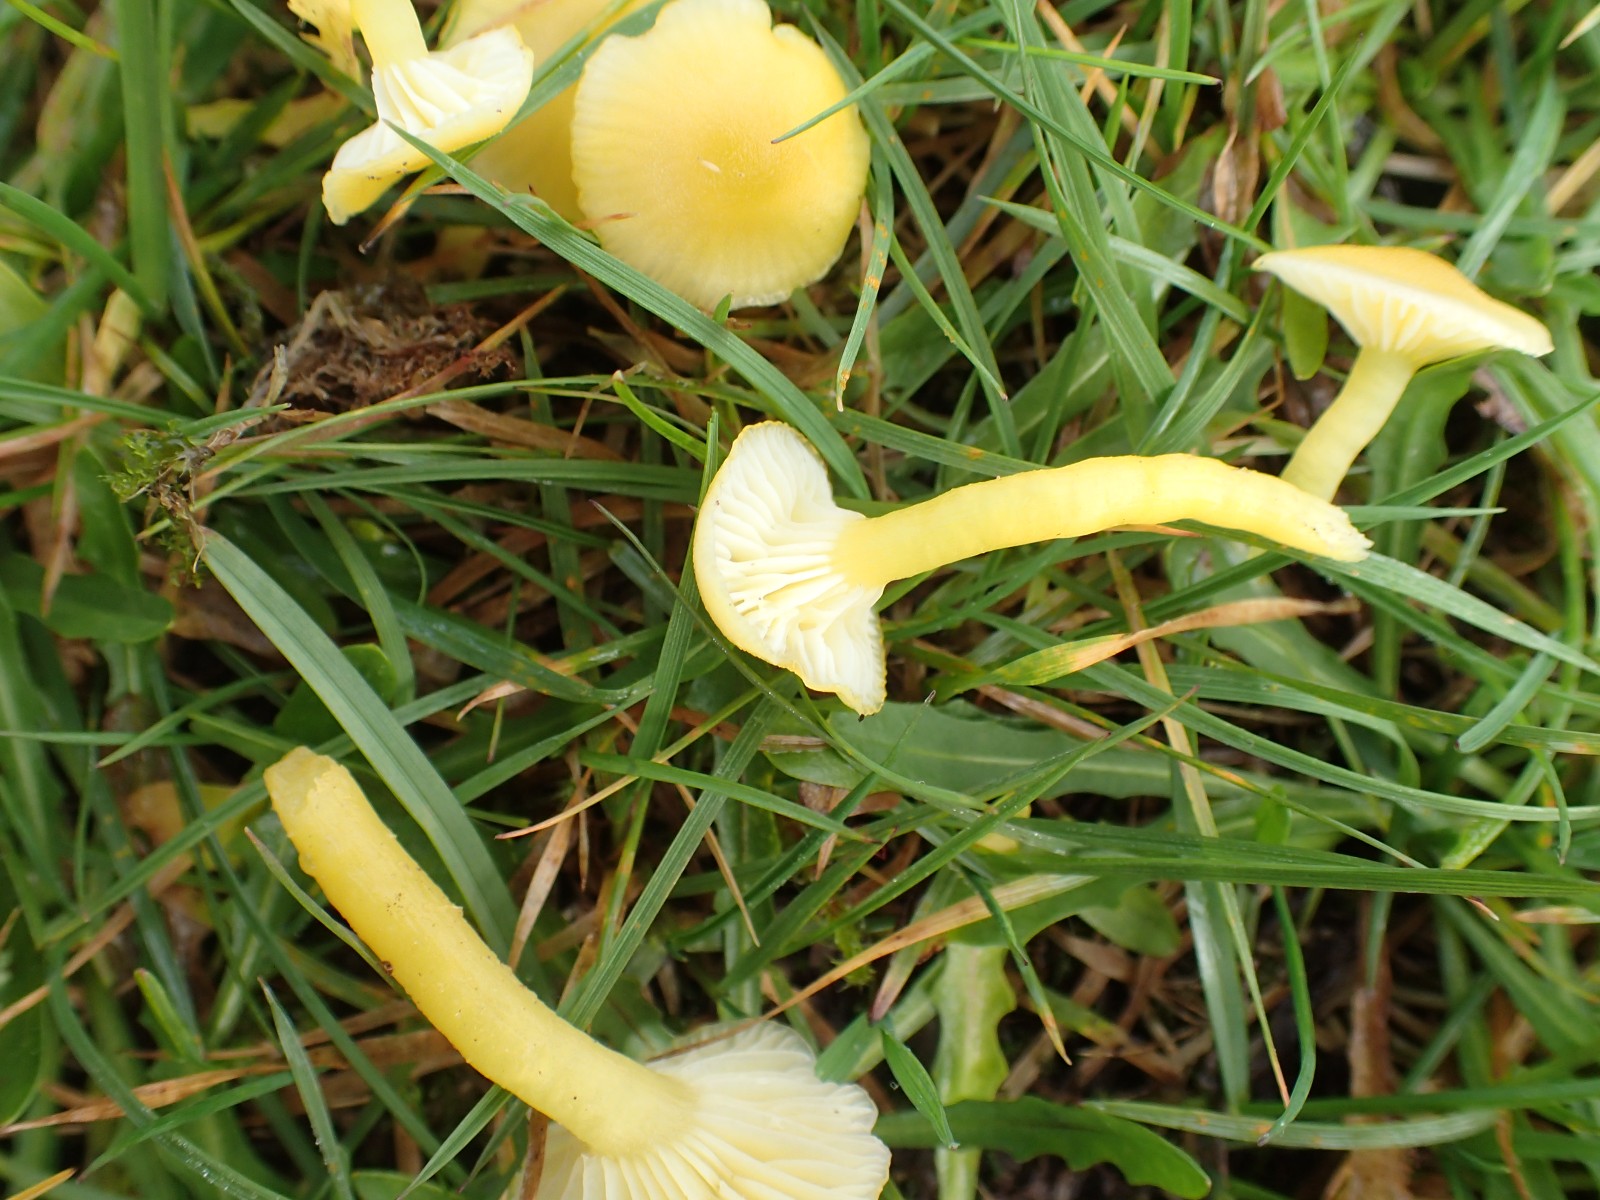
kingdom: Fungi
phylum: Basidiomycota
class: Agaricomycetes
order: Agaricales
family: Hygrophoraceae
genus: Hygrocybe
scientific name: Hygrocybe ceracea
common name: voksgul vokshat
